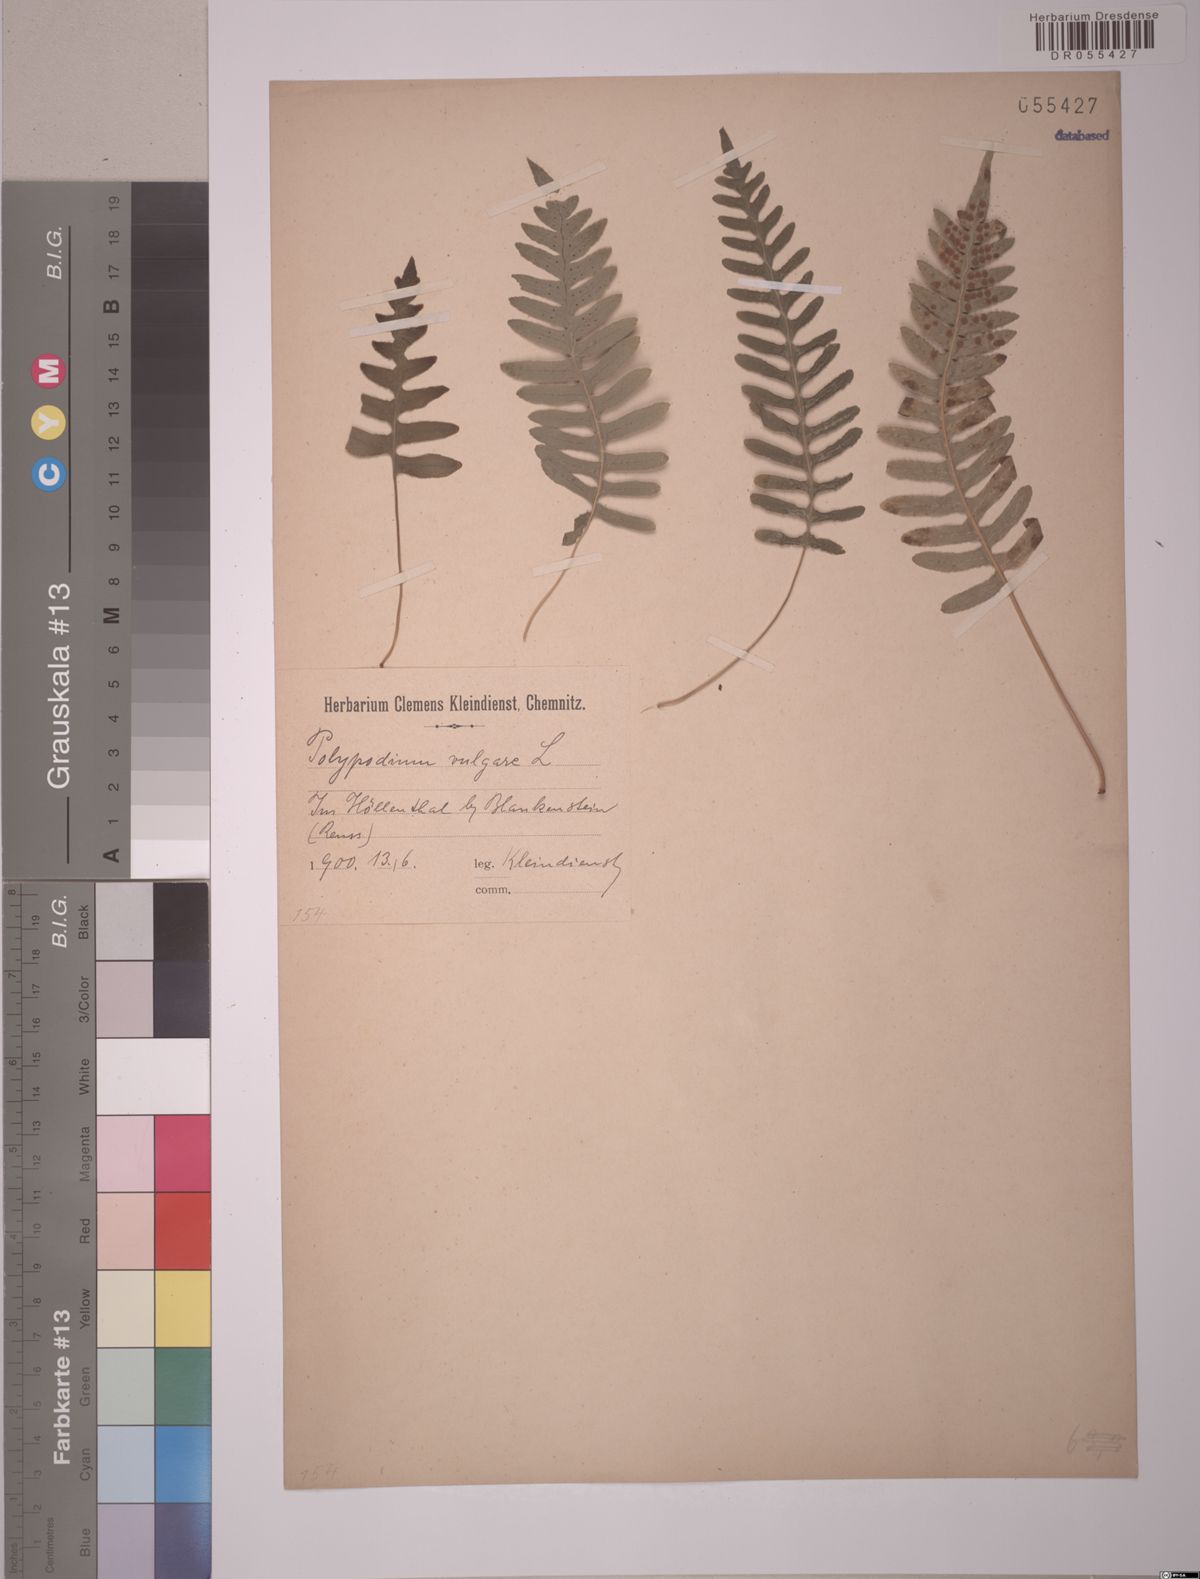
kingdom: Plantae
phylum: Tracheophyta
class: Polypodiopsida
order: Polypodiales
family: Polypodiaceae
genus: Polypodium
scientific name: Polypodium vulgare
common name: Common polypody
